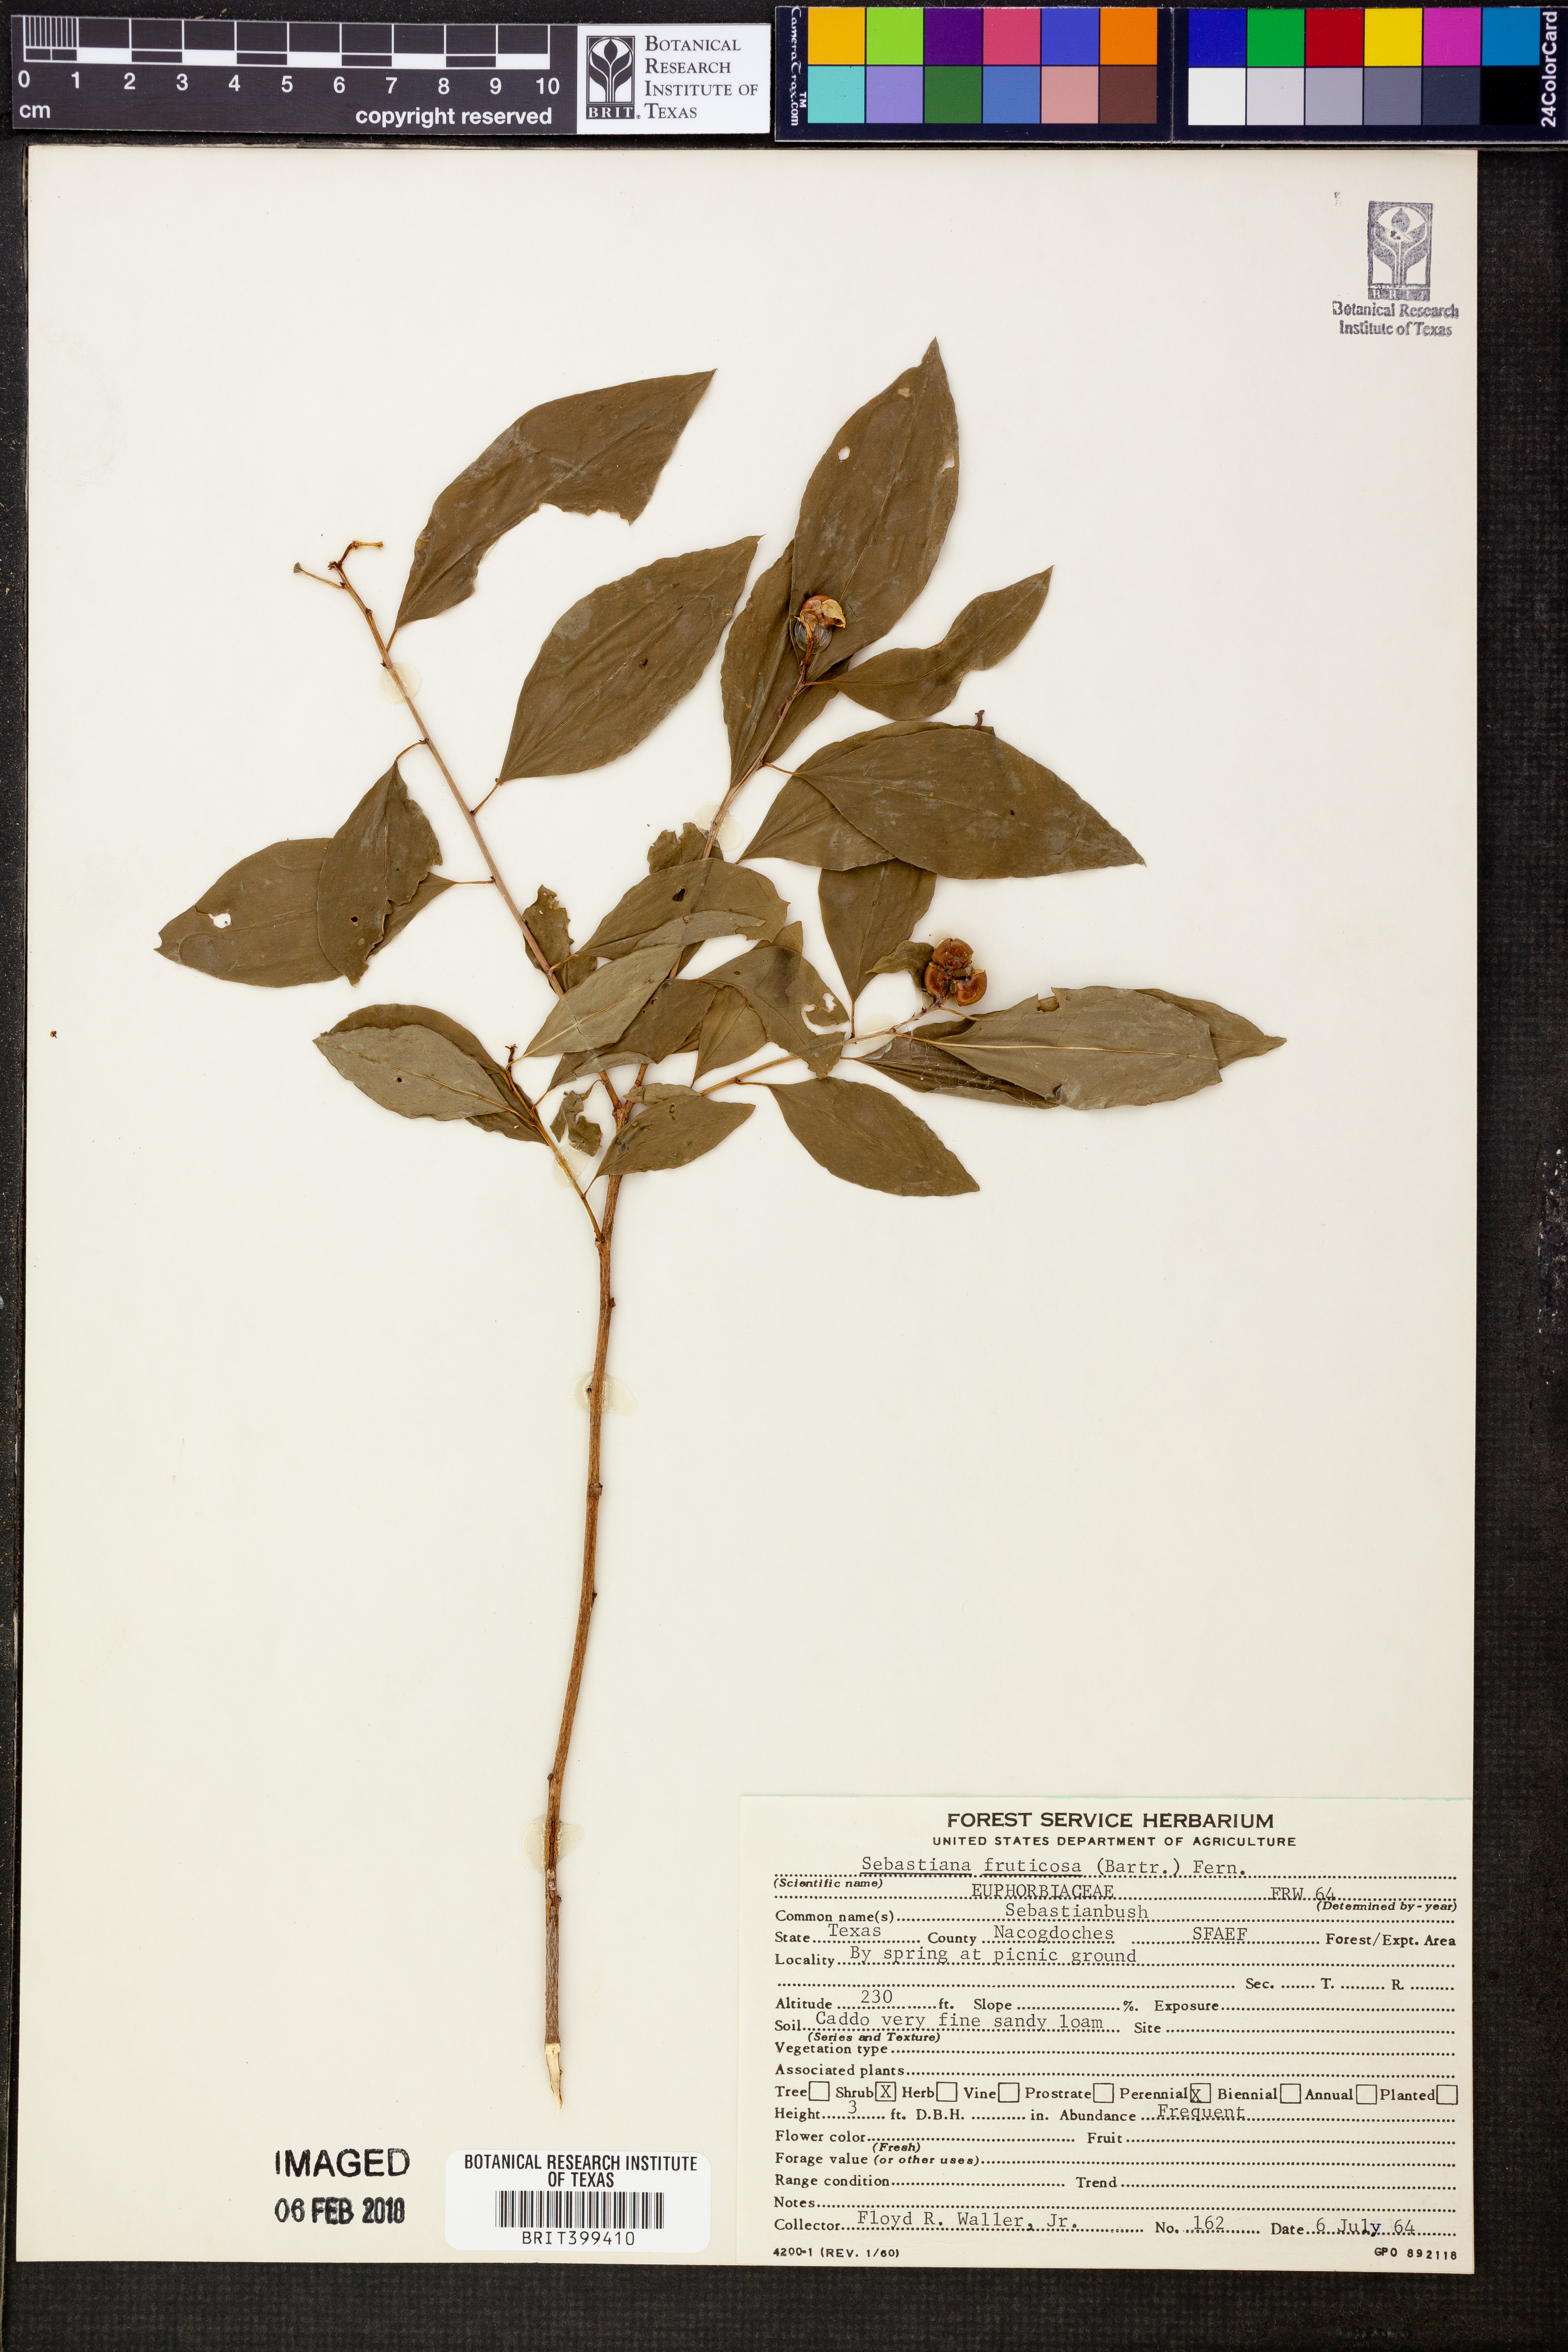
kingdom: Plantae
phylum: Tracheophyta
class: Magnoliopsida
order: Malpighiales
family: Euphorbiaceae
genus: Ditrysinia
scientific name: Ditrysinia fruticosa
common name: Gulf sebastian-bush
